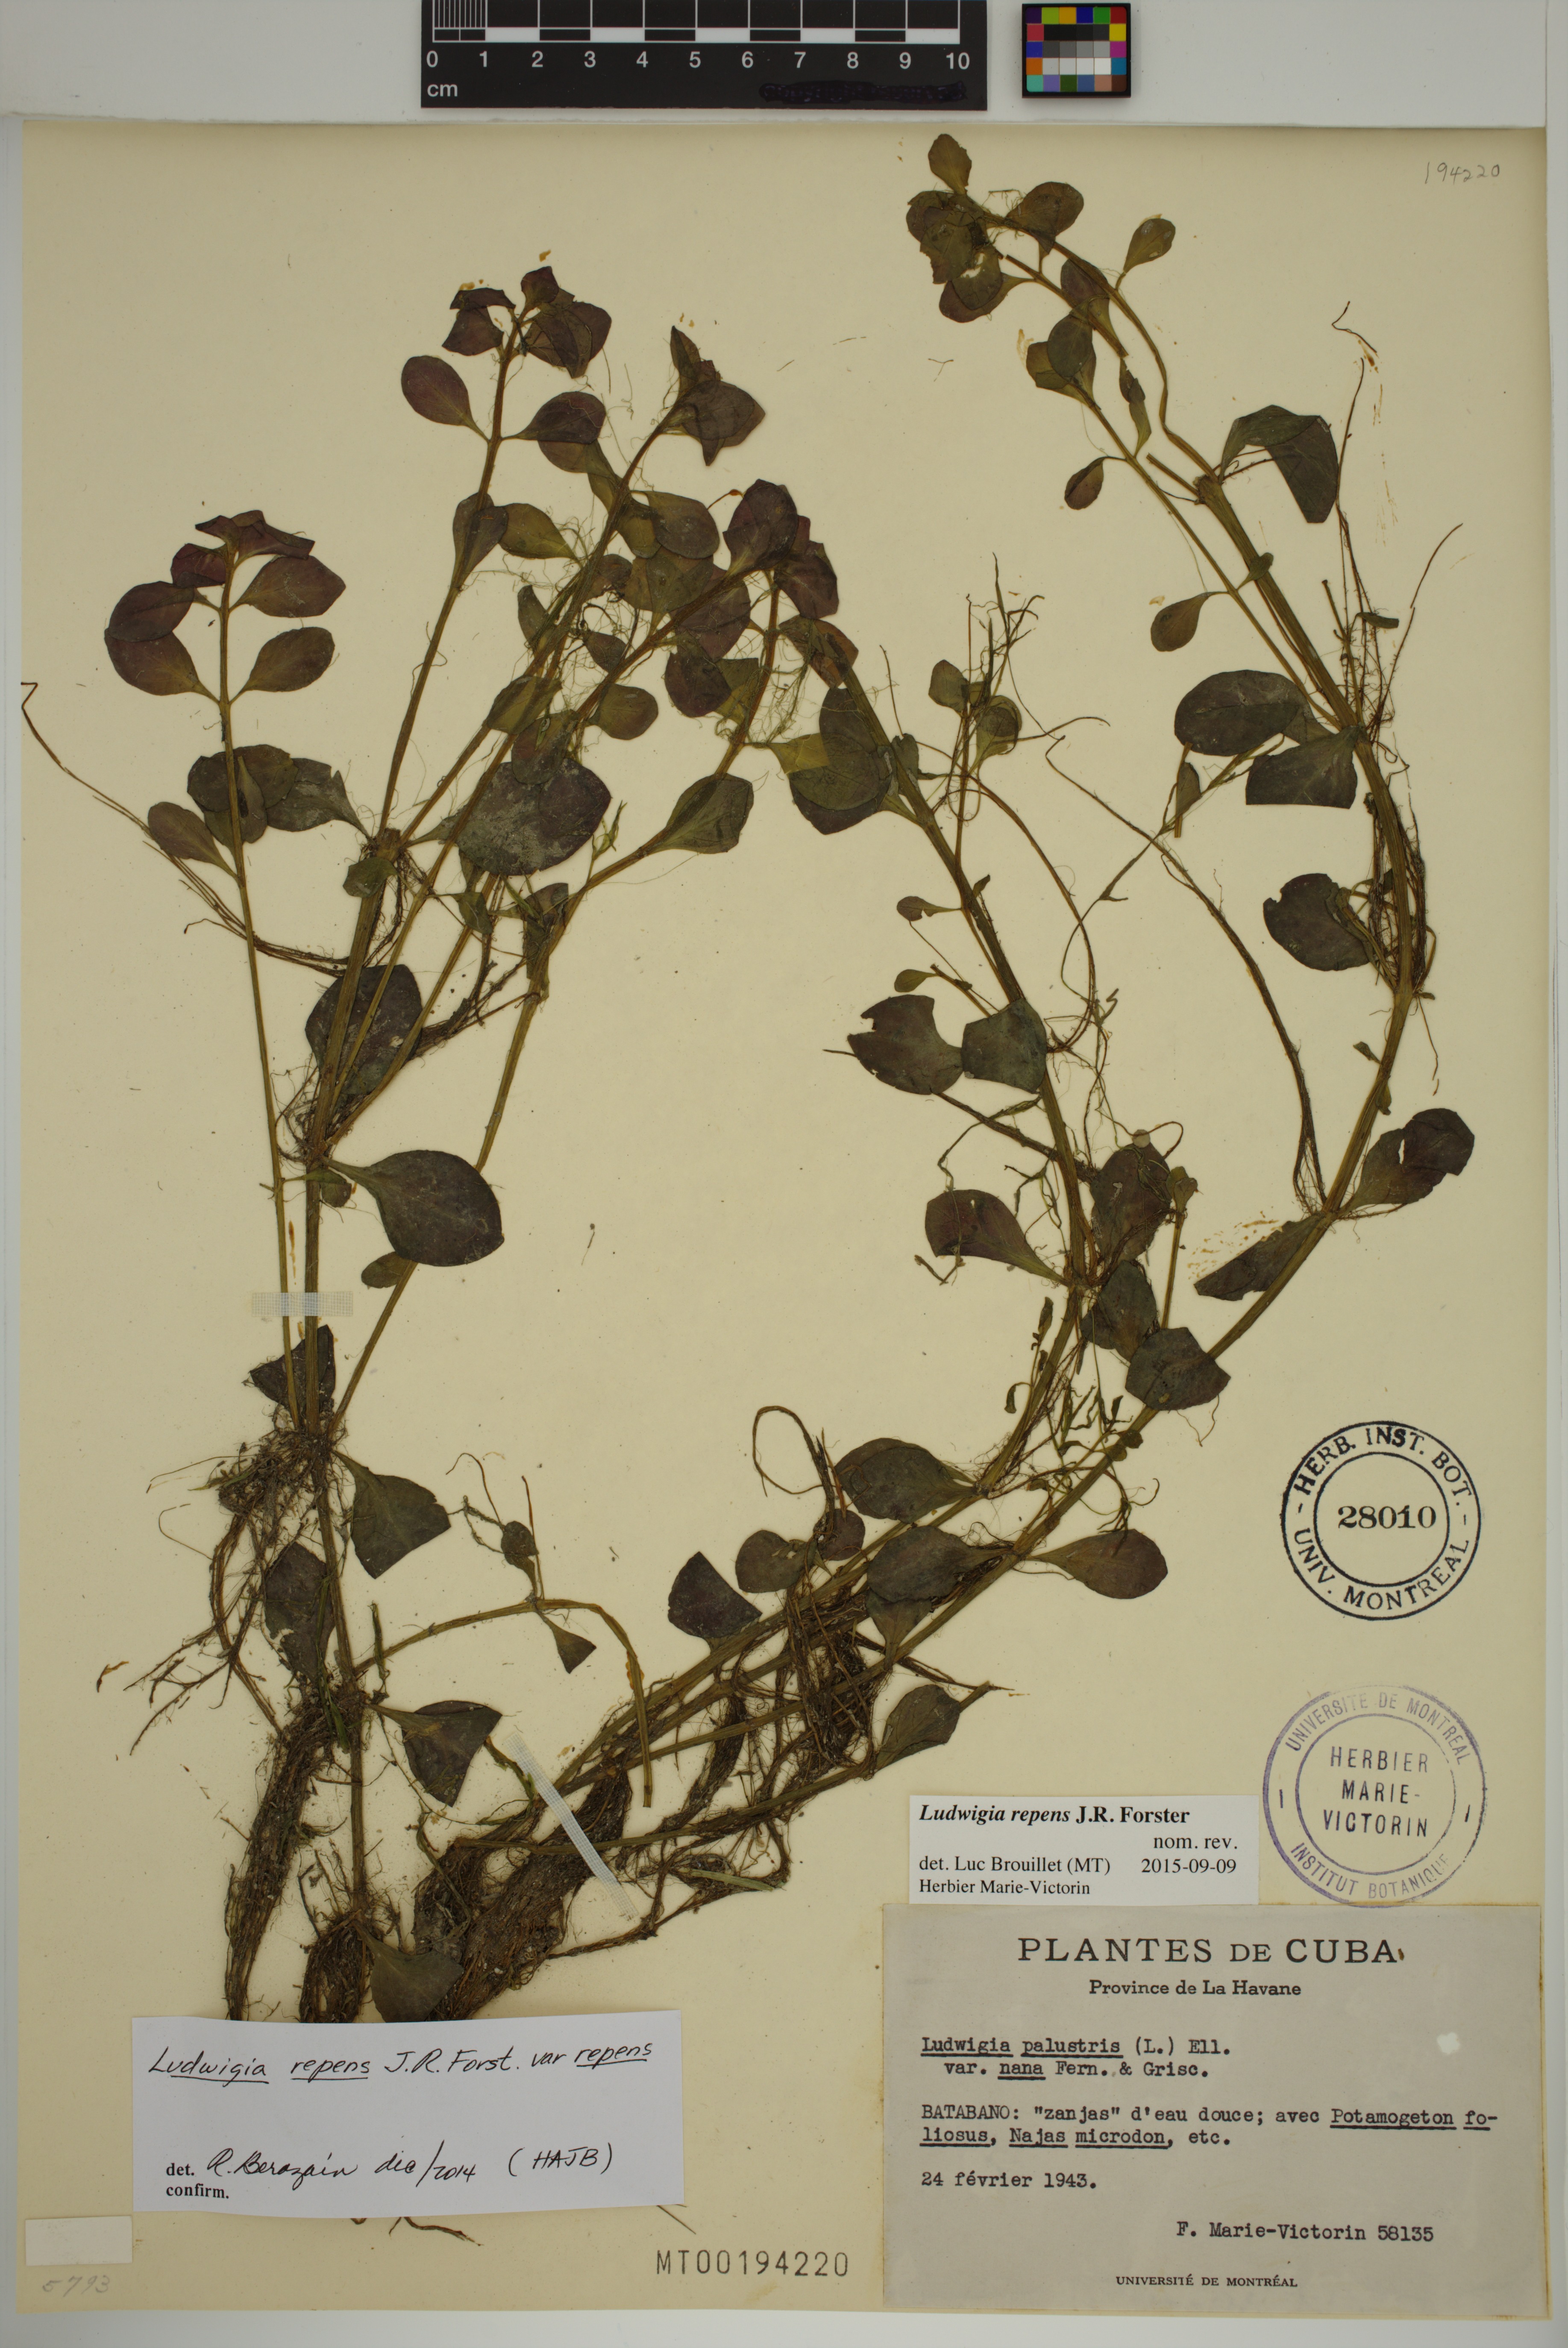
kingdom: Plantae
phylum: Tracheophyta
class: Magnoliopsida
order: Myrtales
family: Onagraceae
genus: Ludwigia
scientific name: Ludwigia repens
